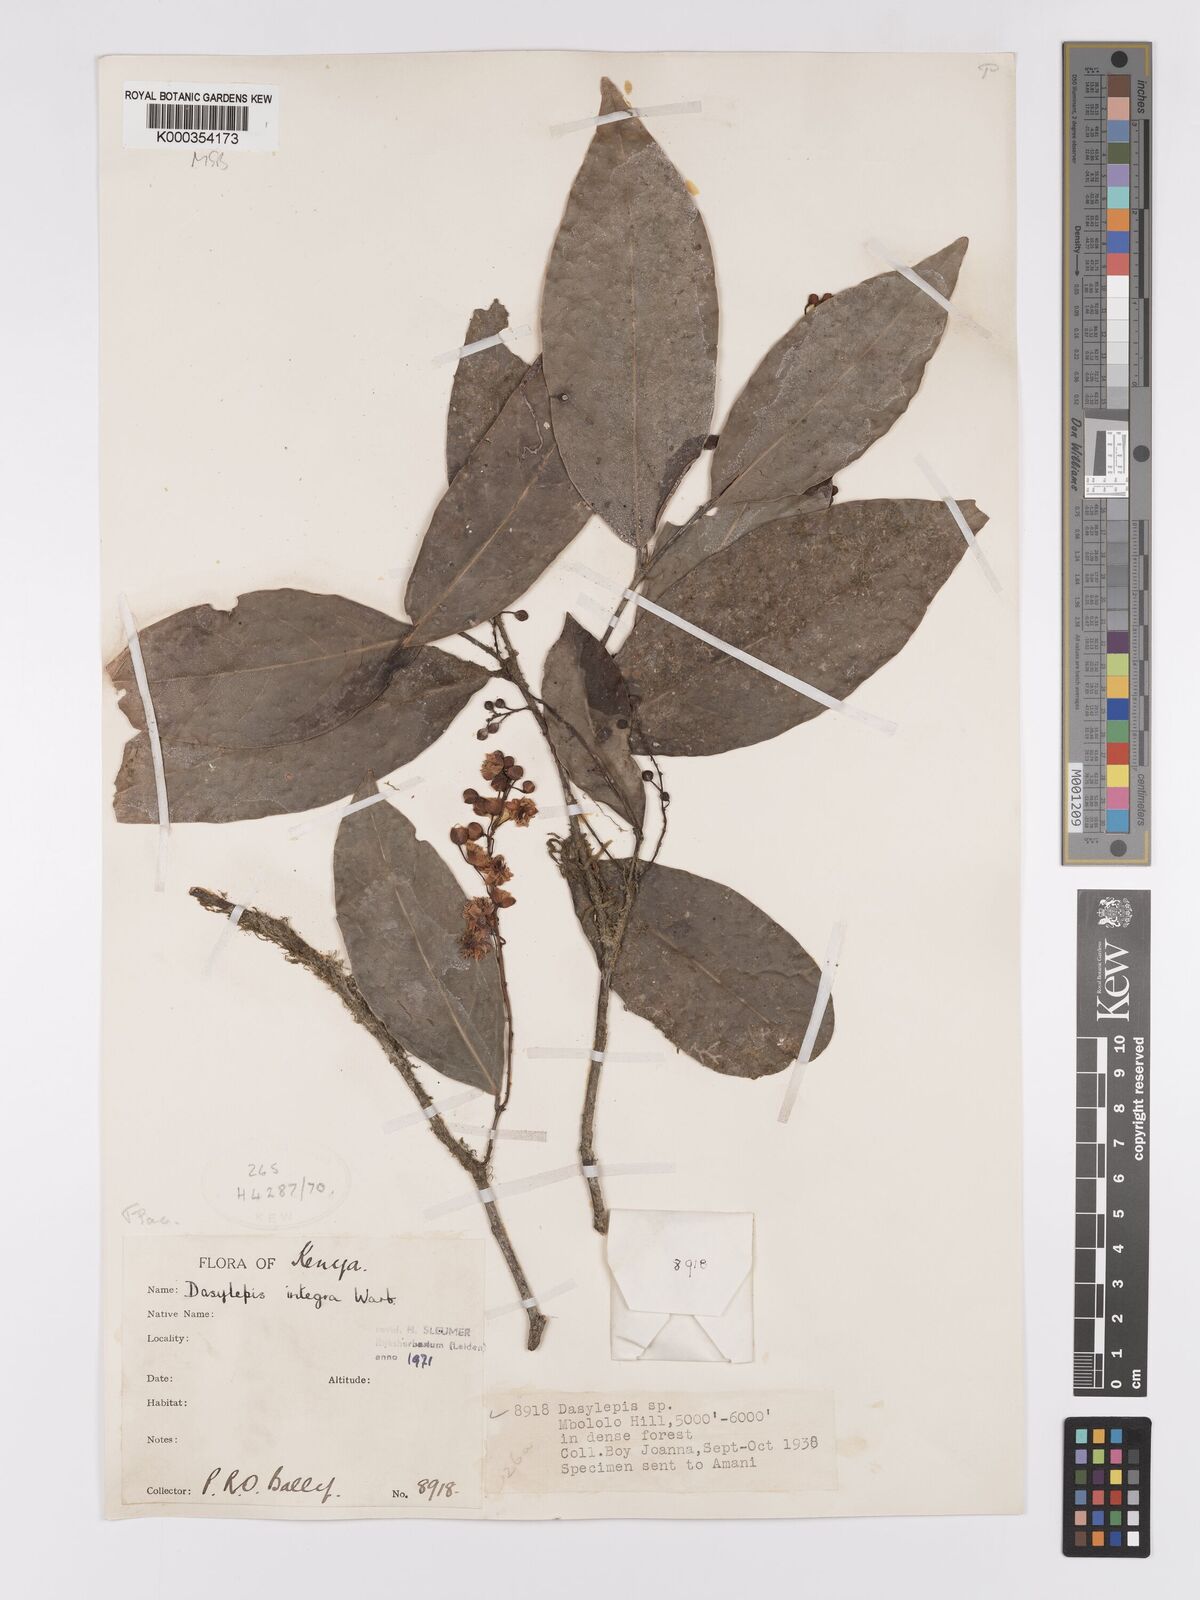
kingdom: Plantae
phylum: Tracheophyta
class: Magnoliopsida
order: Malpighiales
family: Achariaceae
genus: Dasylepis
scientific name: Dasylepis integra
